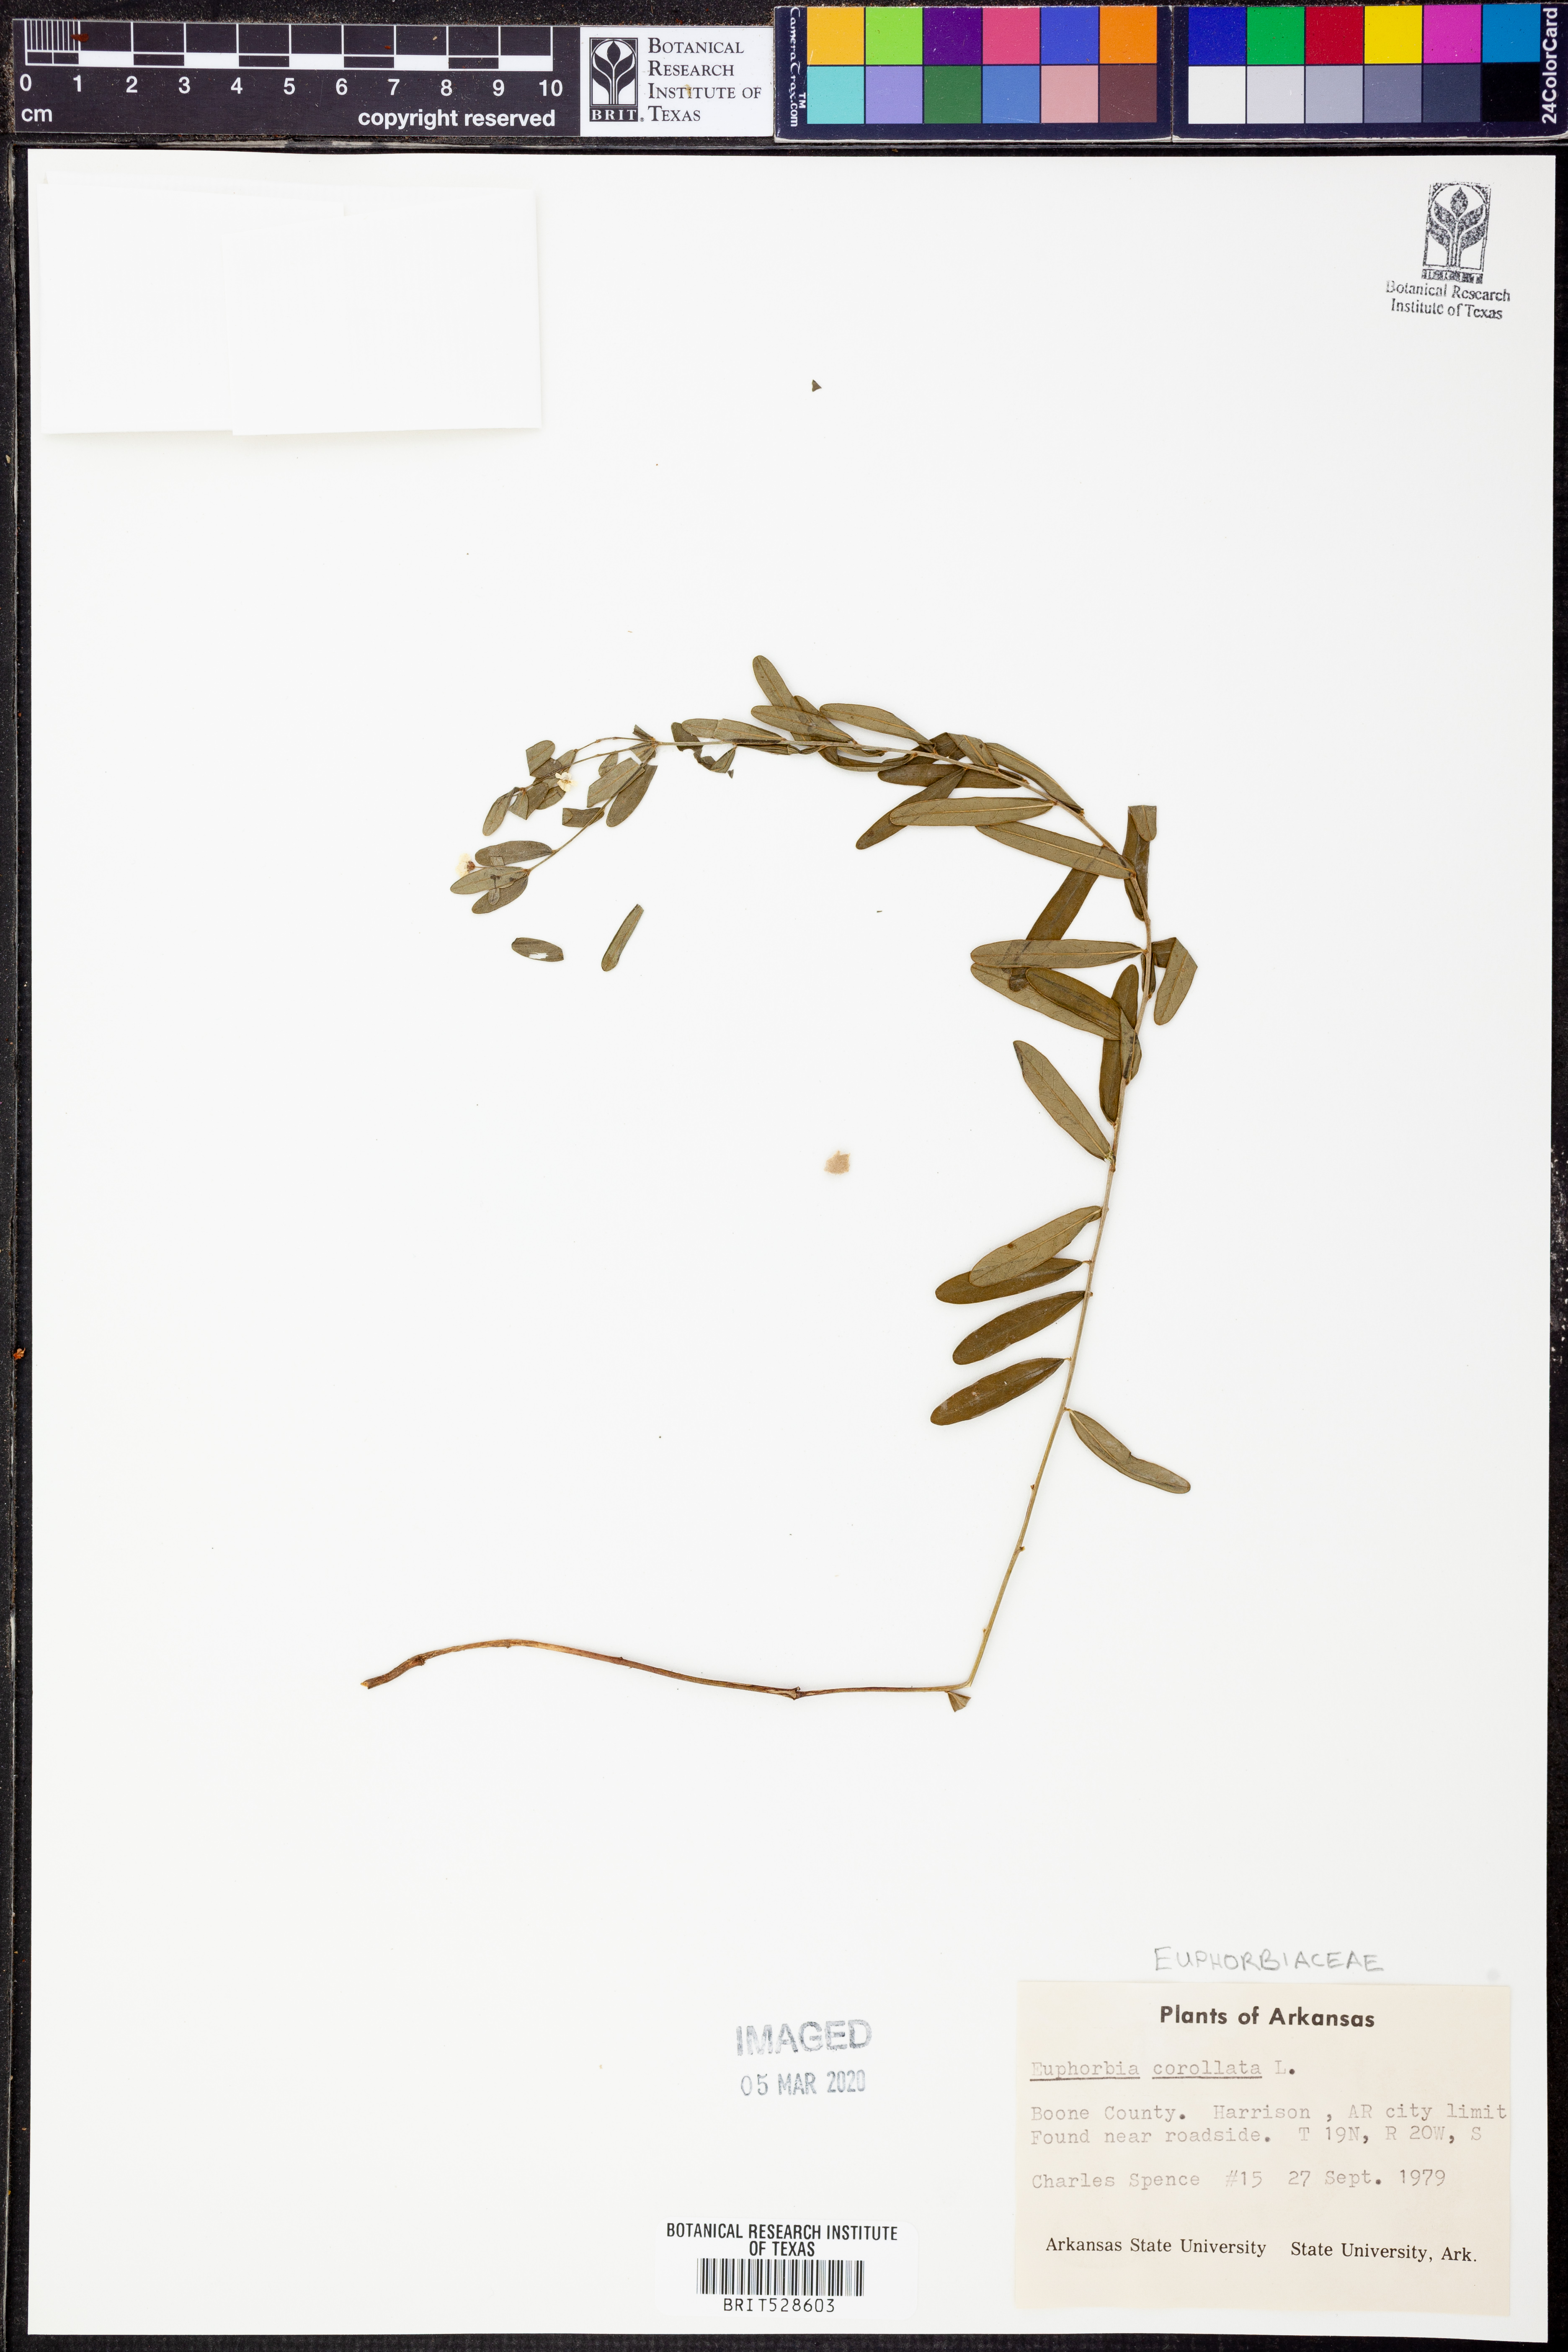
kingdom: Plantae
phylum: Tracheophyta
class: Magnoliopsida
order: Malpighiales
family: Euphorbiaceae
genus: Euphorbia
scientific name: Euphorbia corollata
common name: Flowering spurge
